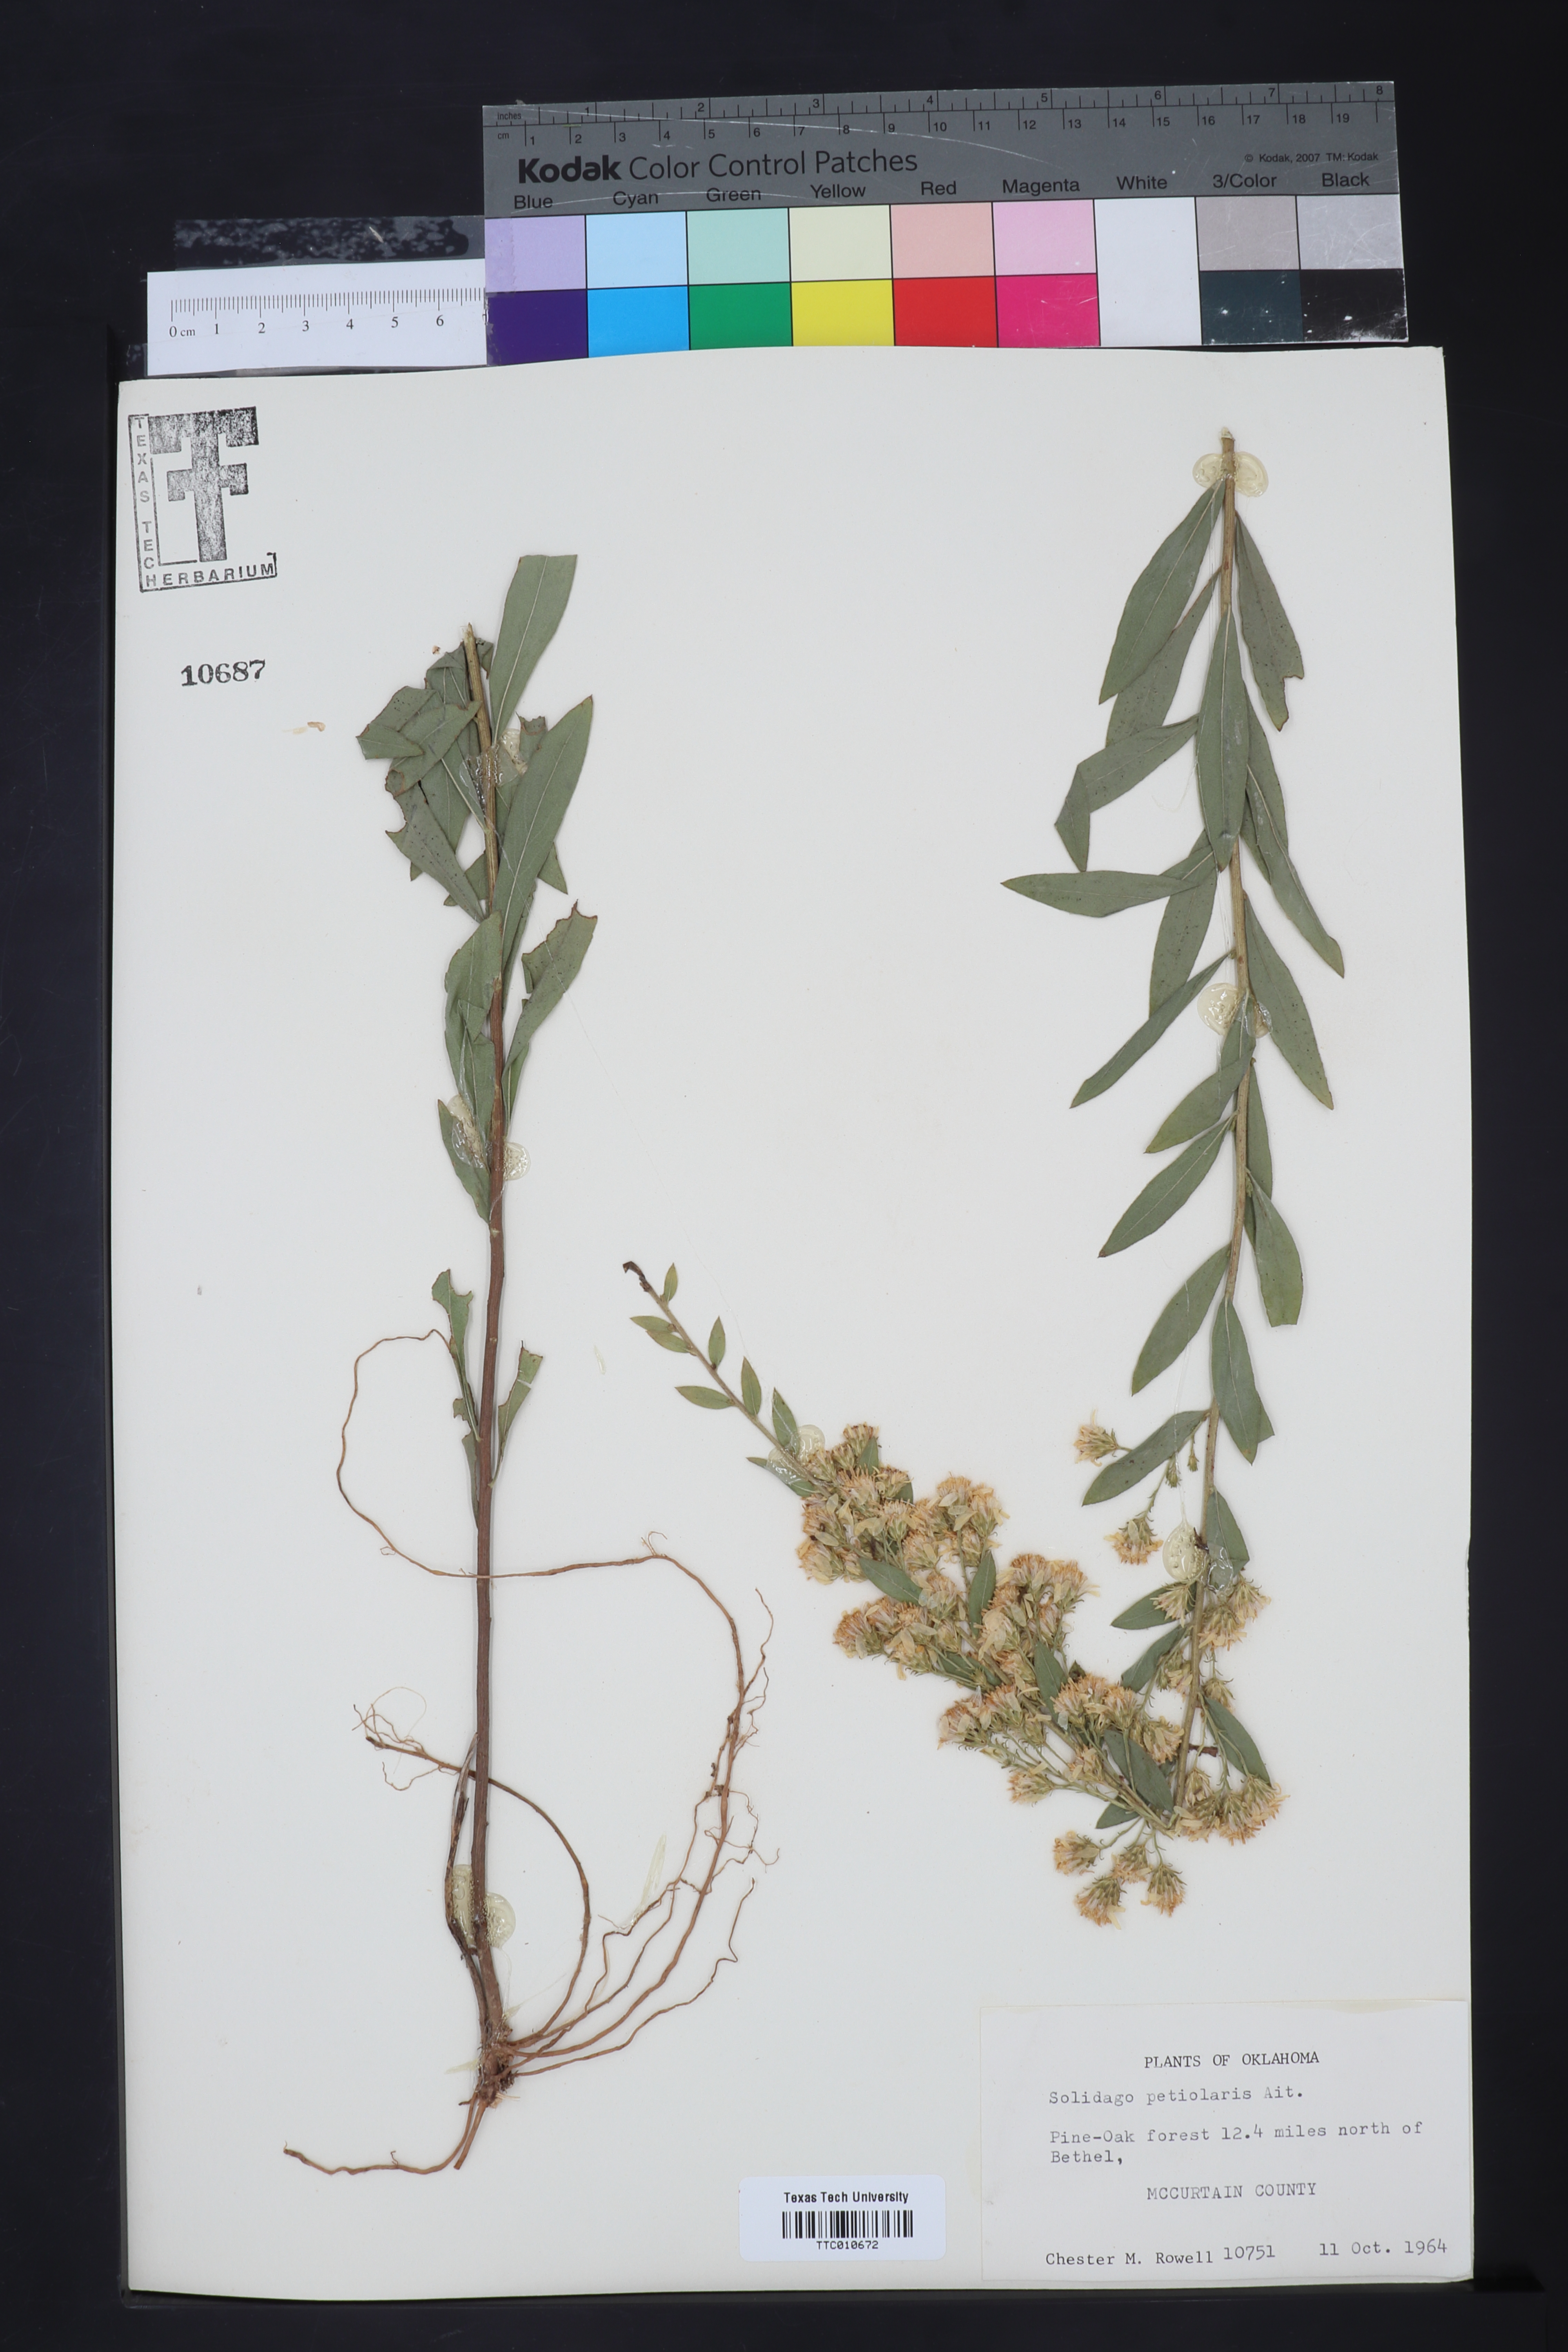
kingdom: Plantae
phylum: Tracheophyta
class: Magnoliopsida
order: Asterales
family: Asteraceae
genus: Solidago
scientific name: Solidago petiolaris
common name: Downy ragged goldenrod
